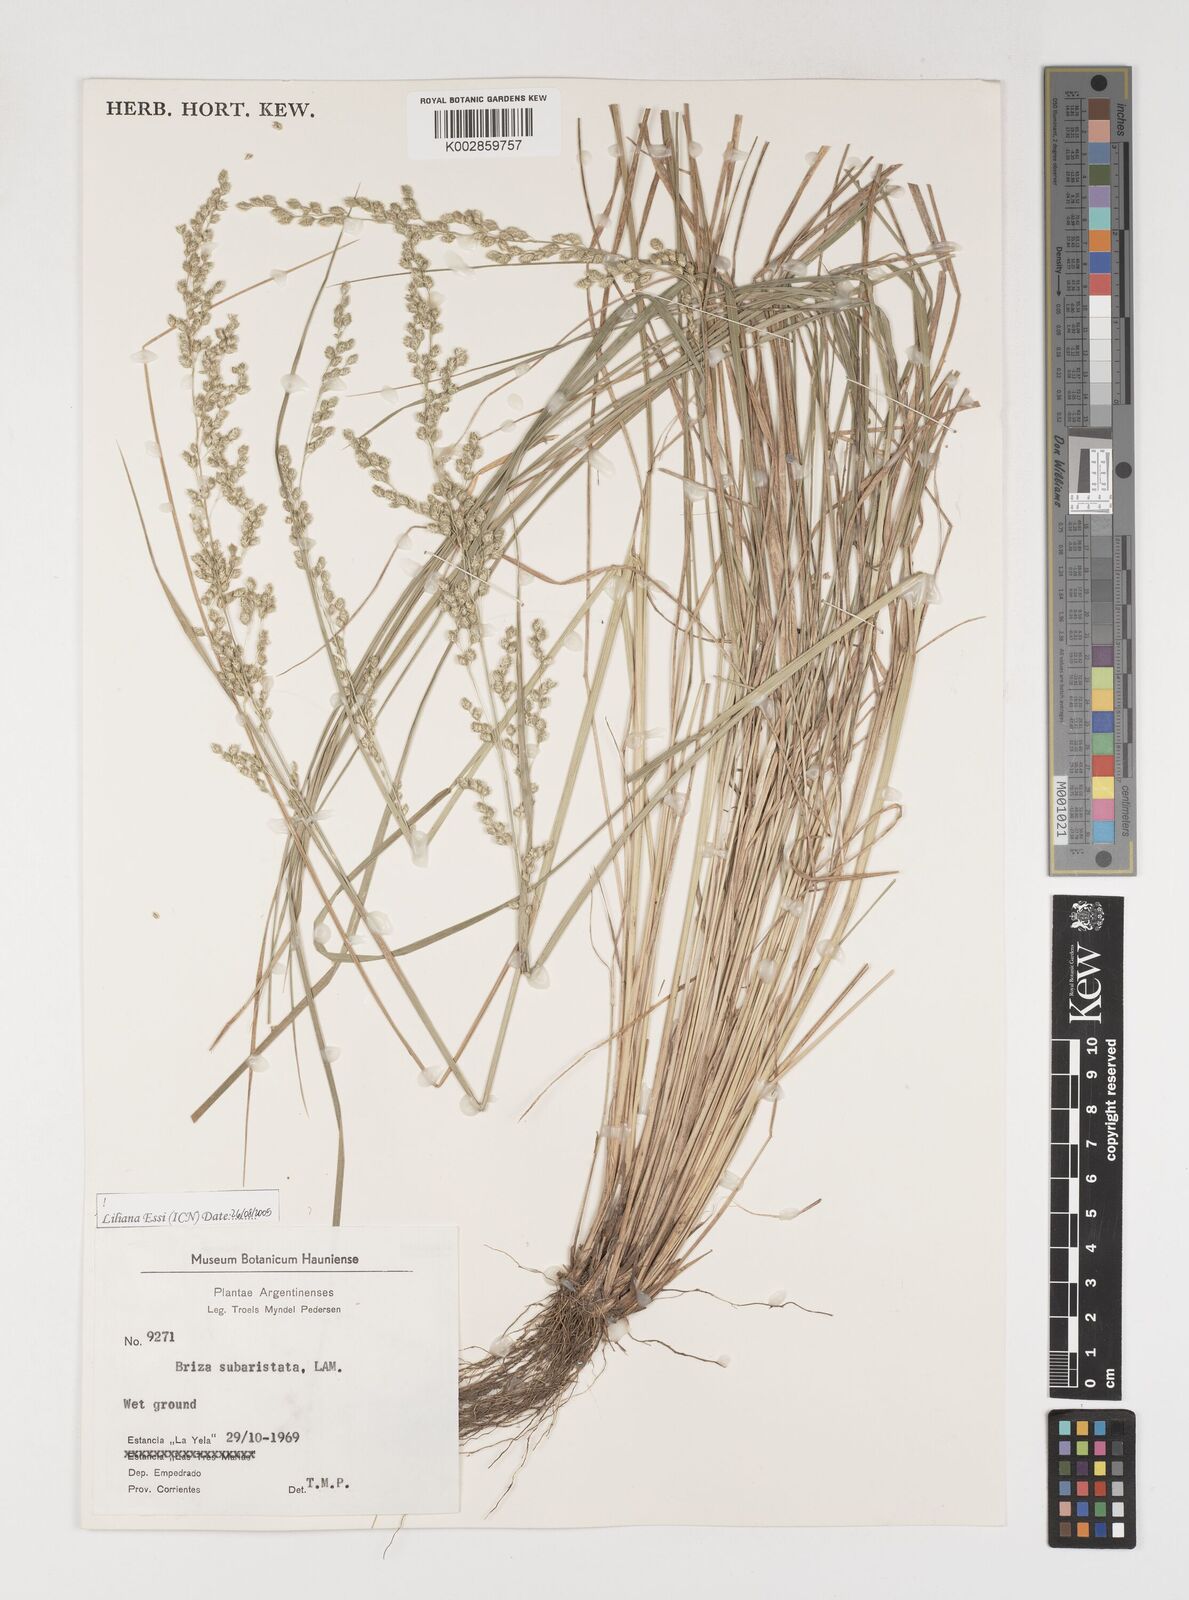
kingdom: Plantae
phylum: Tracheophyta
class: Liliopsida
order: Poales
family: Poaceae
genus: Chascolytrum
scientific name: Chascolytrum subaristatum
